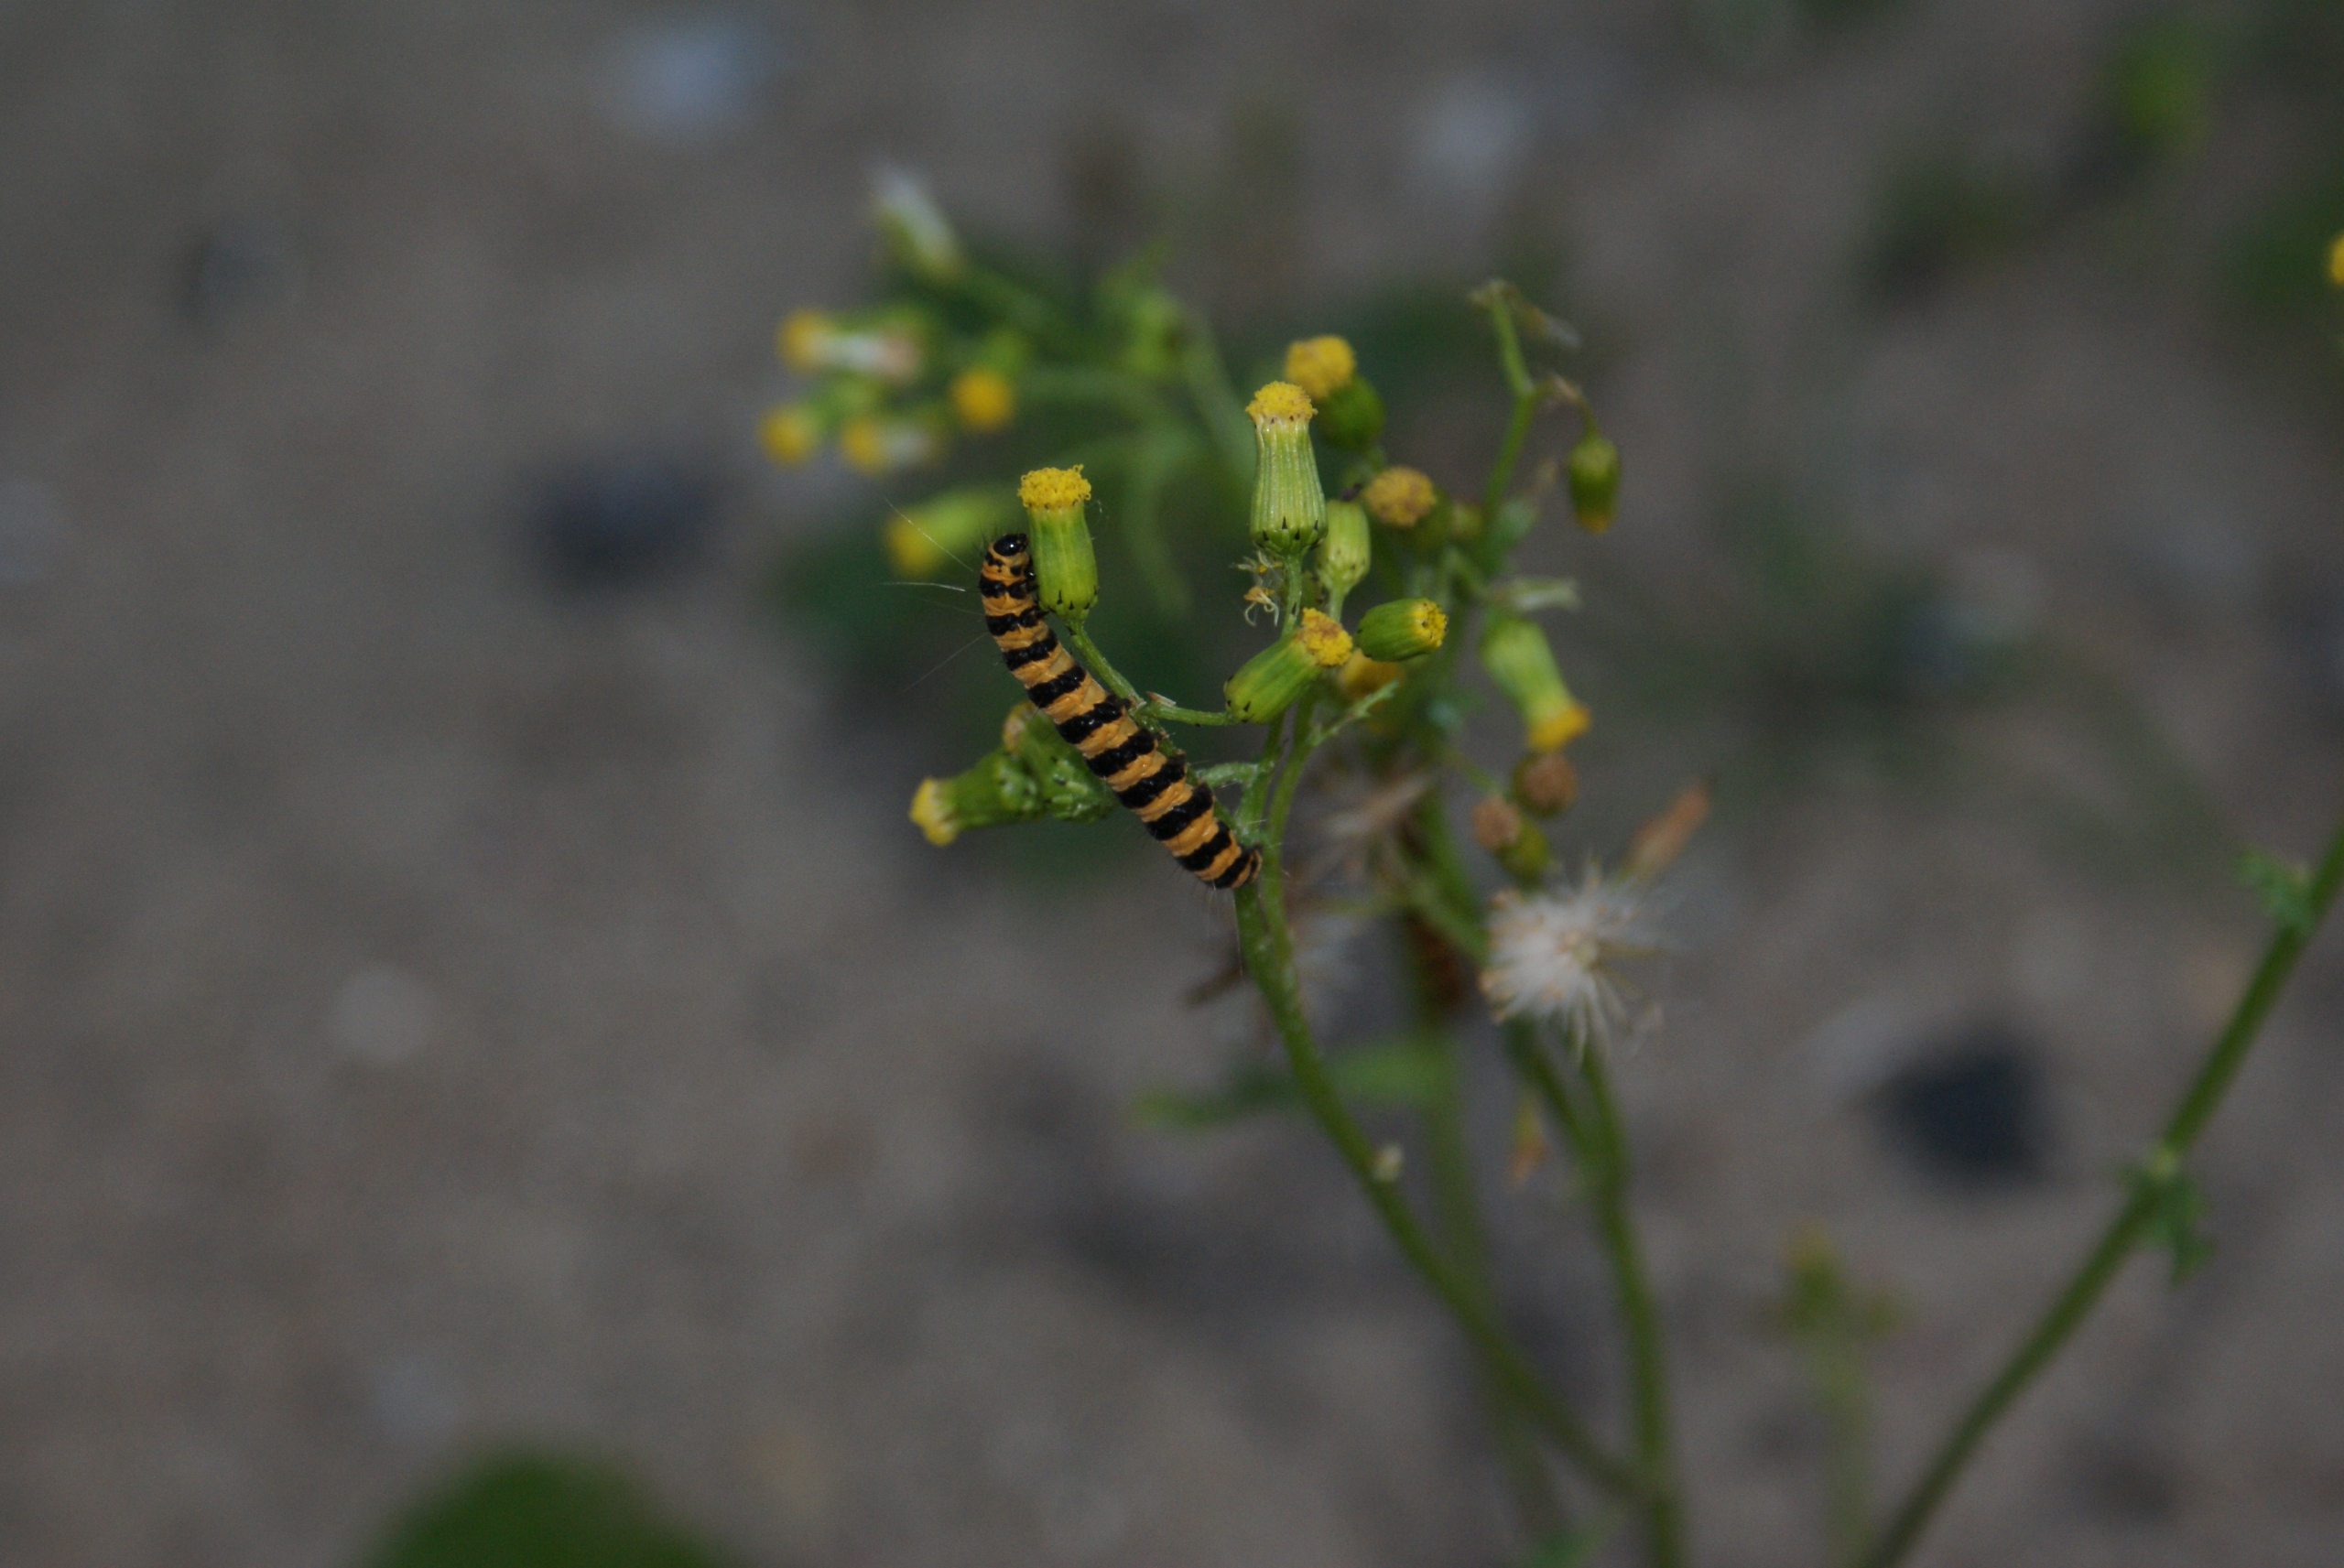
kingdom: Animalia
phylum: Arthropoda
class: Insecta
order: Lepidoptera
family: Erebidae
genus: Tyria
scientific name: Tyria jacobaeae
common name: Blodplet
